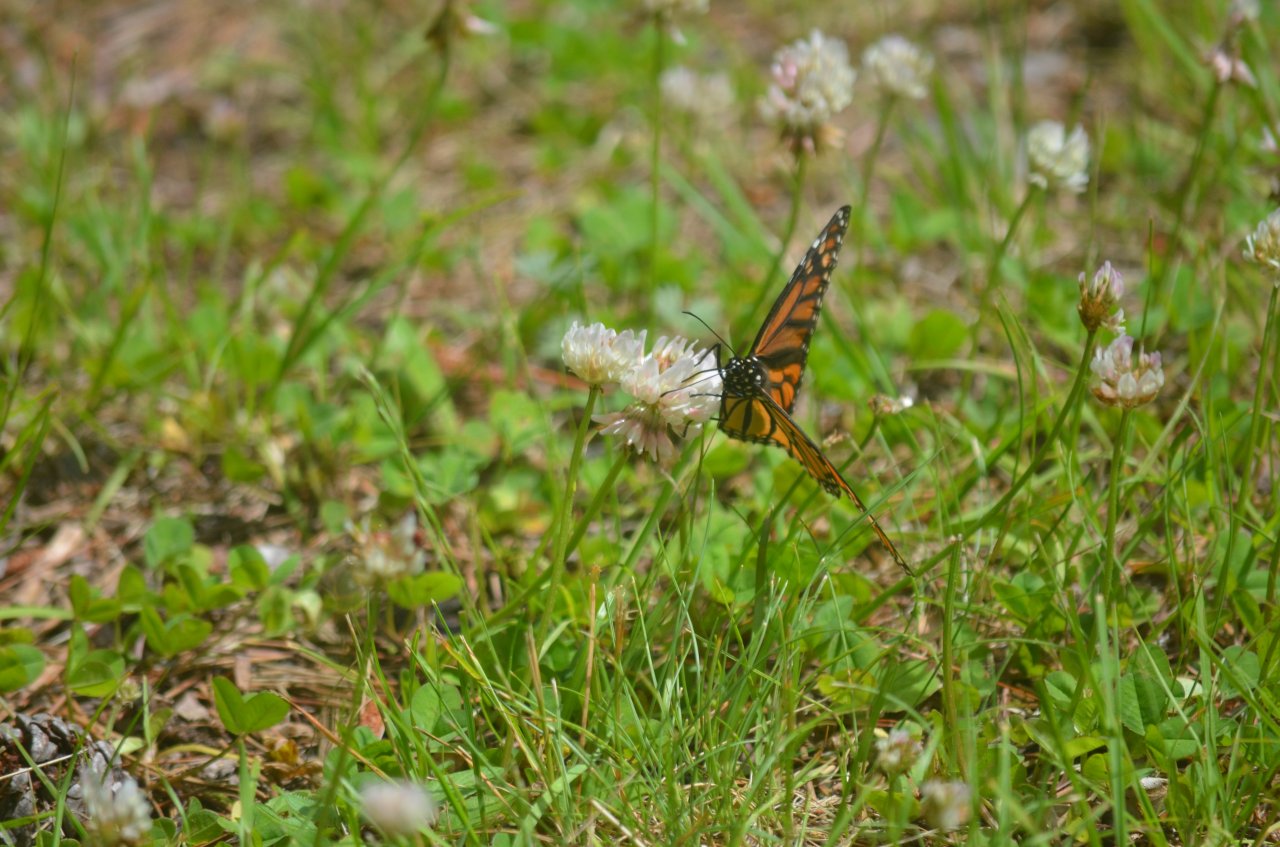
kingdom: Animalia
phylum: Arthropoda
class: Insecta
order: Lepidoptera
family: Nymphalidae
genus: Danaus
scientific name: Danaus plexippus
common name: Monarch
